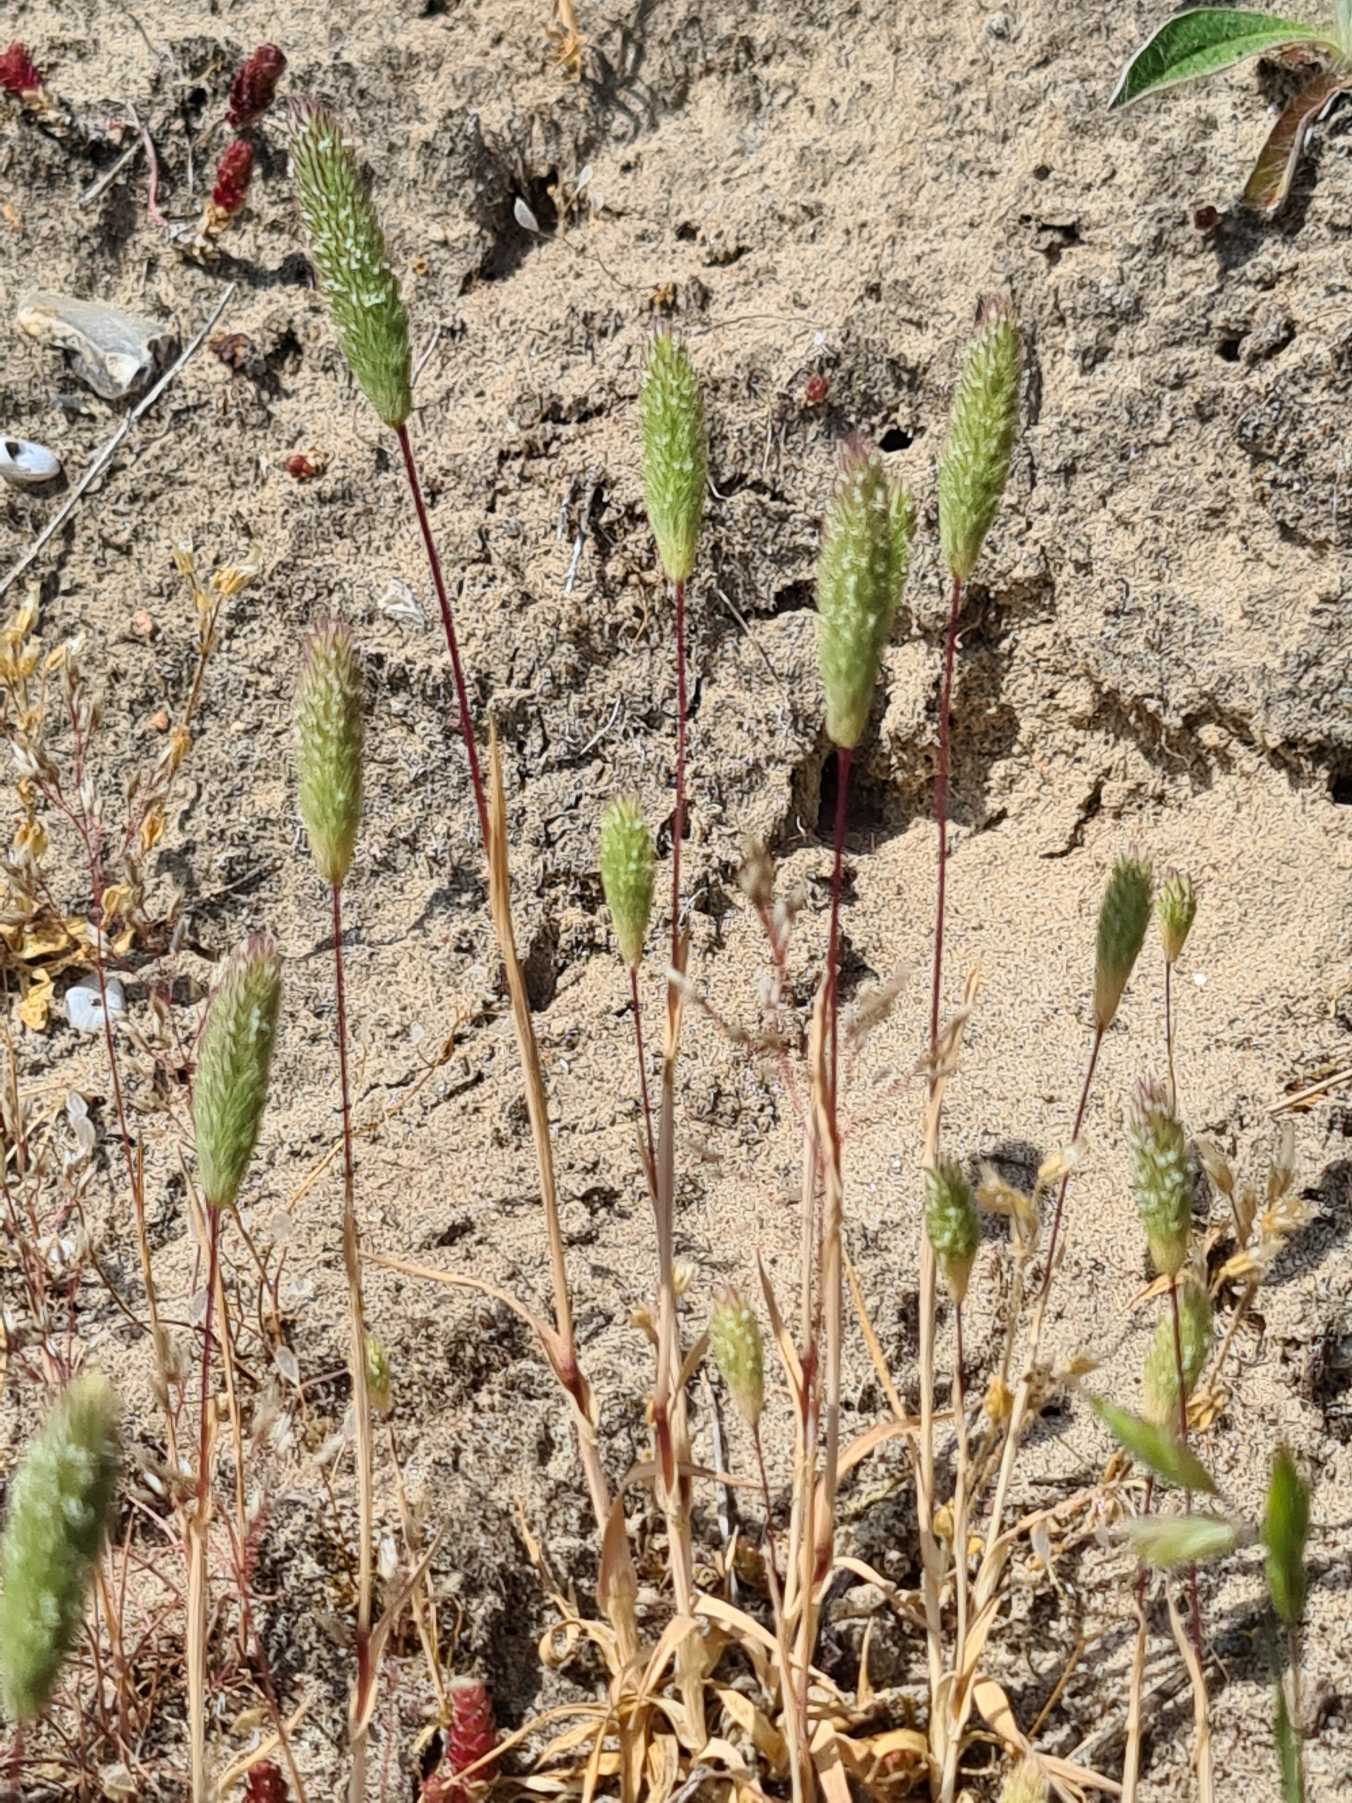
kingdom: Plantae
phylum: Tracheophyta
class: Liliopsida
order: Poales
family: Poaceae
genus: Phleum
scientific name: Phleum arenarium
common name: Sand-rottehale
